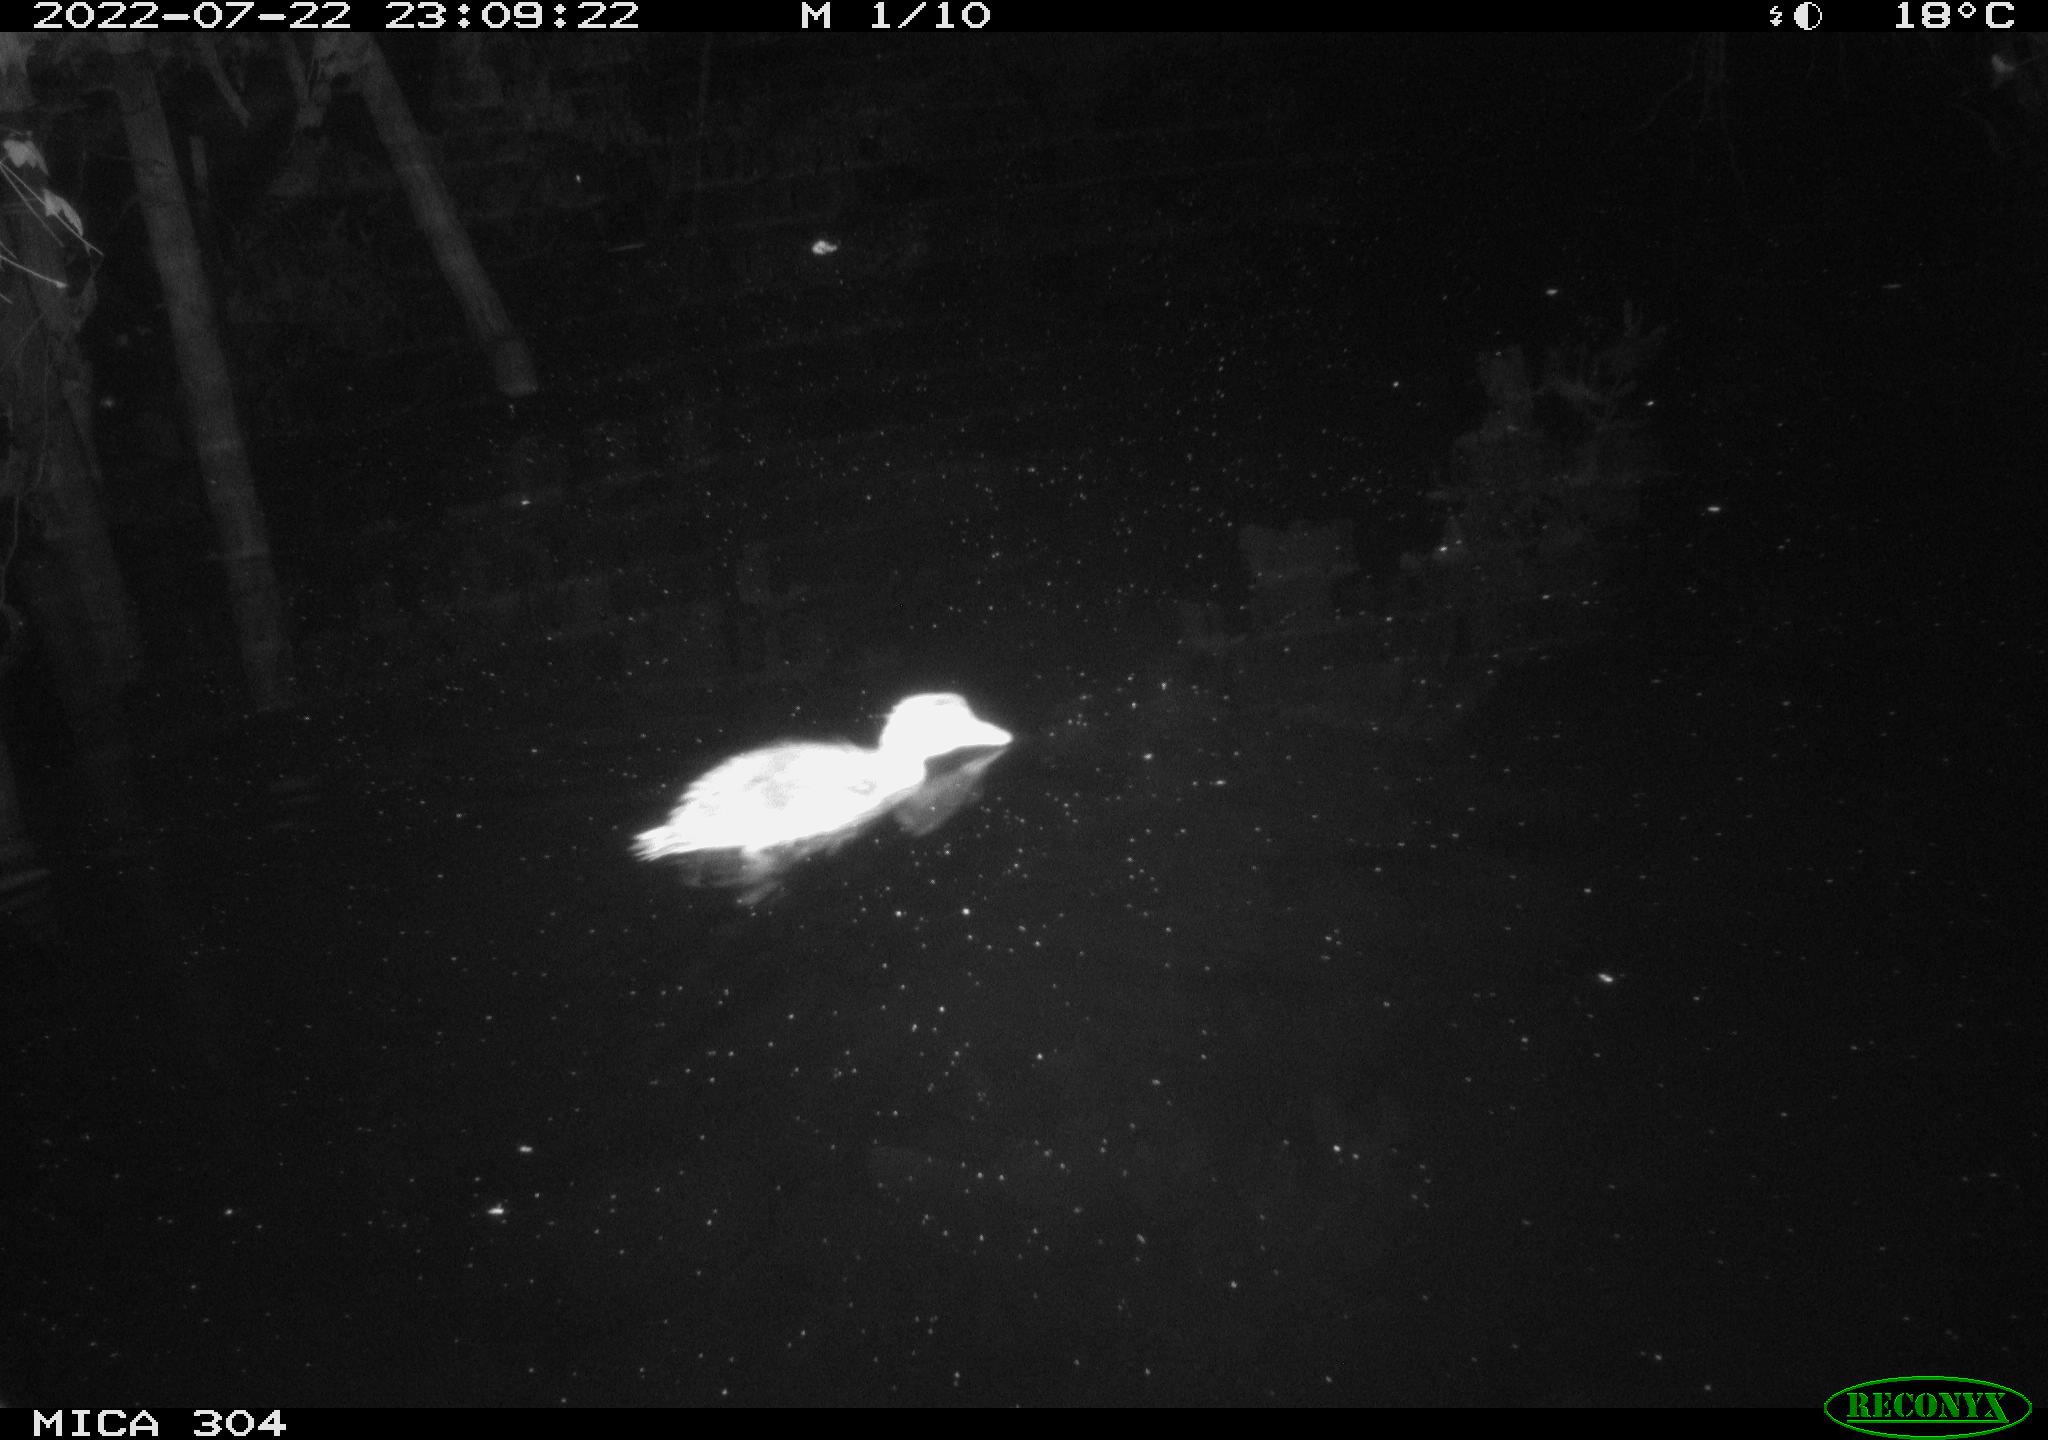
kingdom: Animalia
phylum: Chordata
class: Aves
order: Anseriformes
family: Anatidae
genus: Anas
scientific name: Anas platyrhynchos
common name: Mallard
